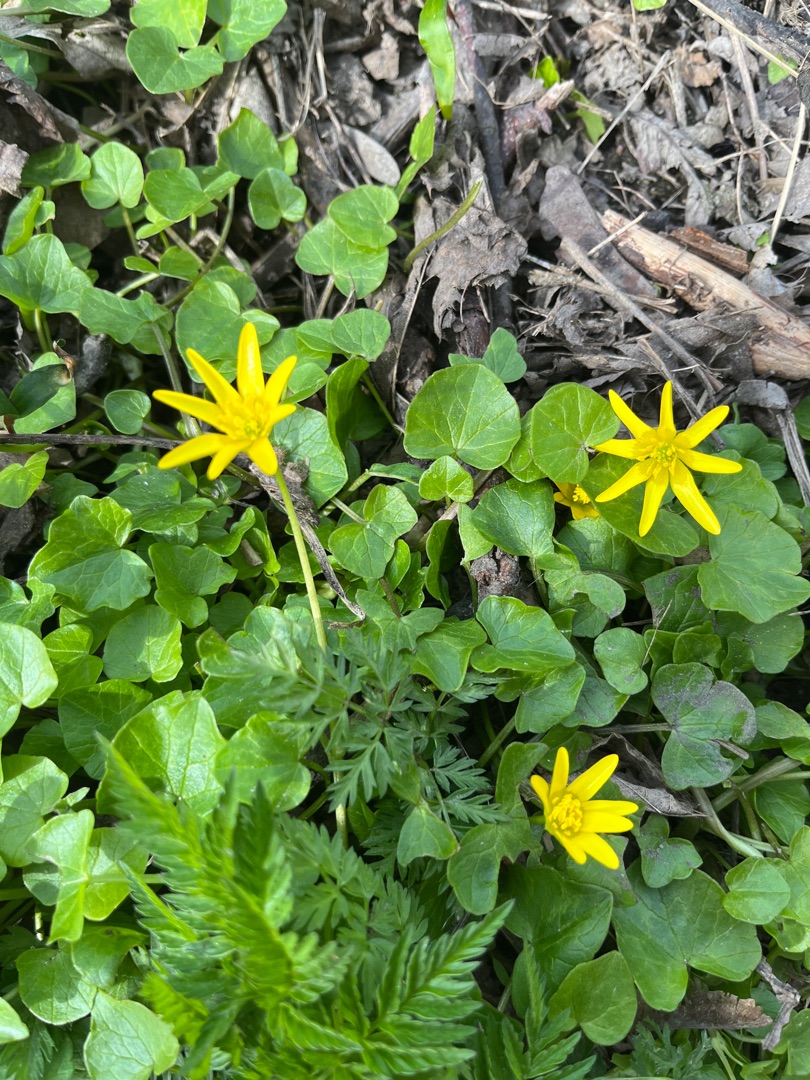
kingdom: Plantae
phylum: Tracheophyta
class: Magnoliopsida
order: Ranunculales
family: Ranunculaceae
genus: Ficaria
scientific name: Ficaria verna
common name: Vorterod
